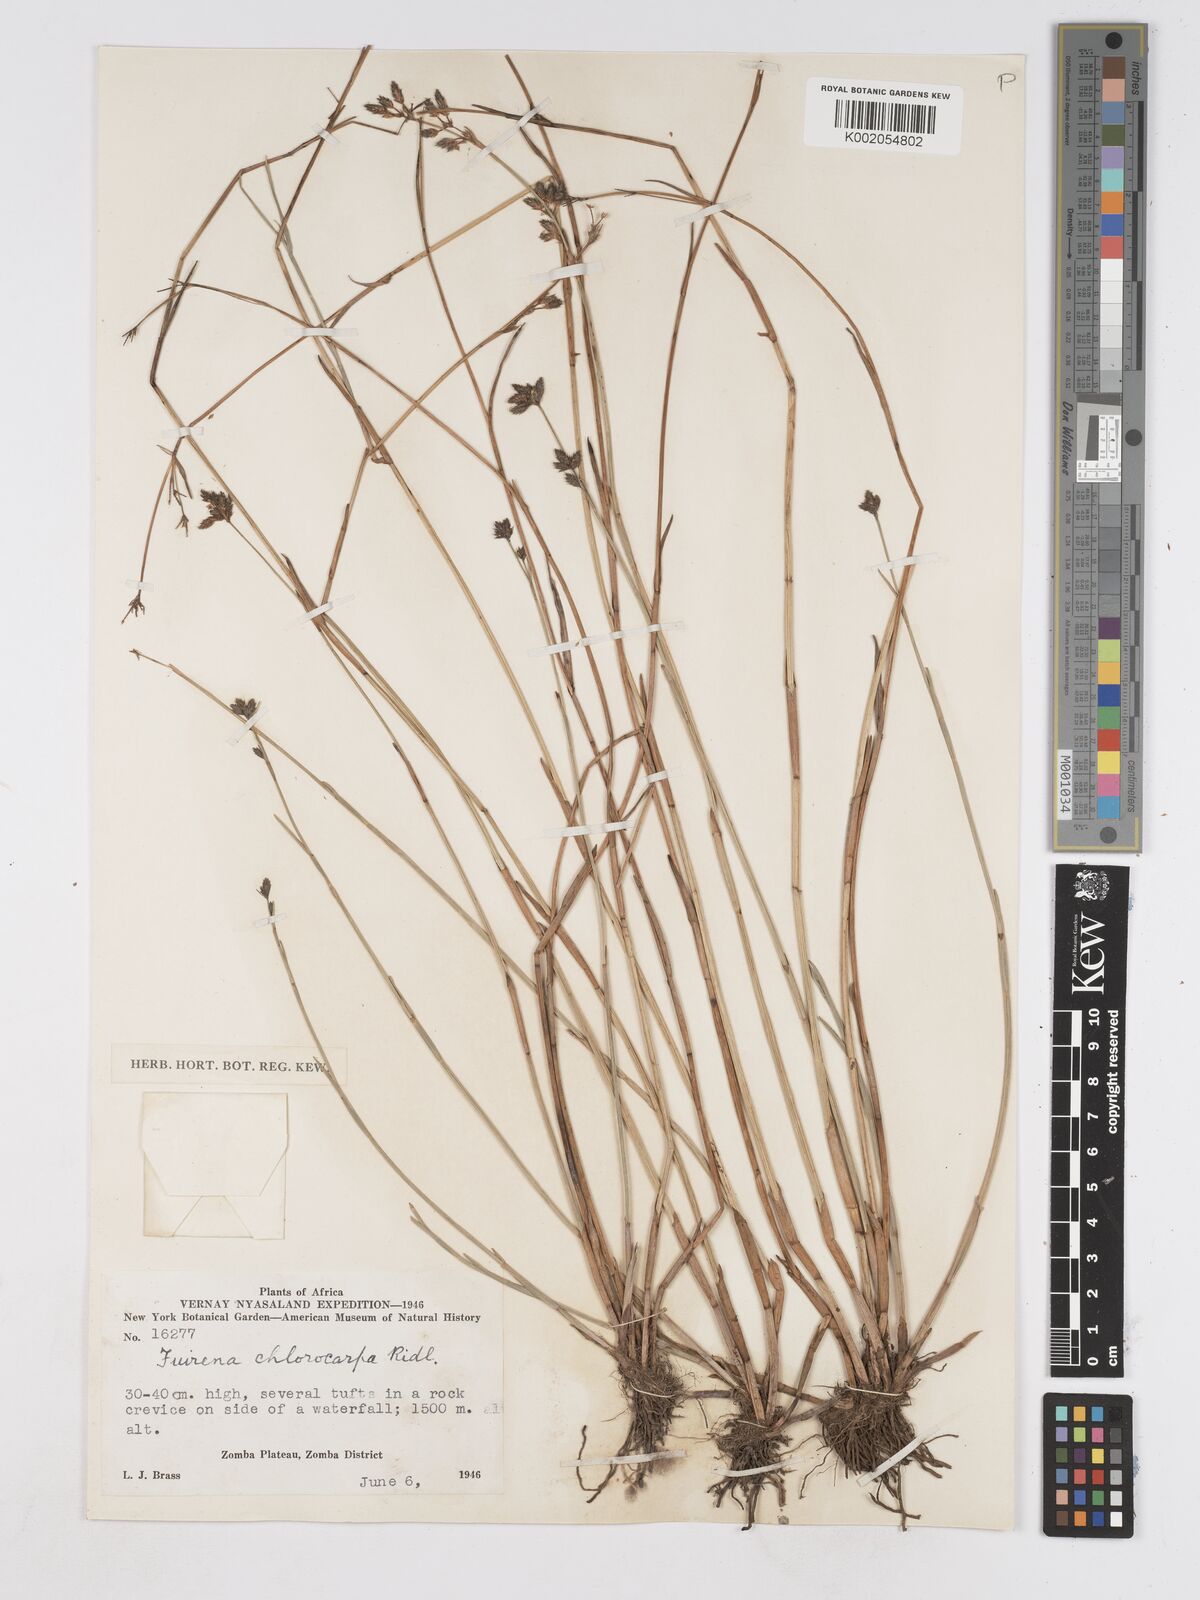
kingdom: Plantae
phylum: Tracheophyta
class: Liliopsida
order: Poales
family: Cyperaceae
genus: Fuirena
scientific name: Fuirena stricta
